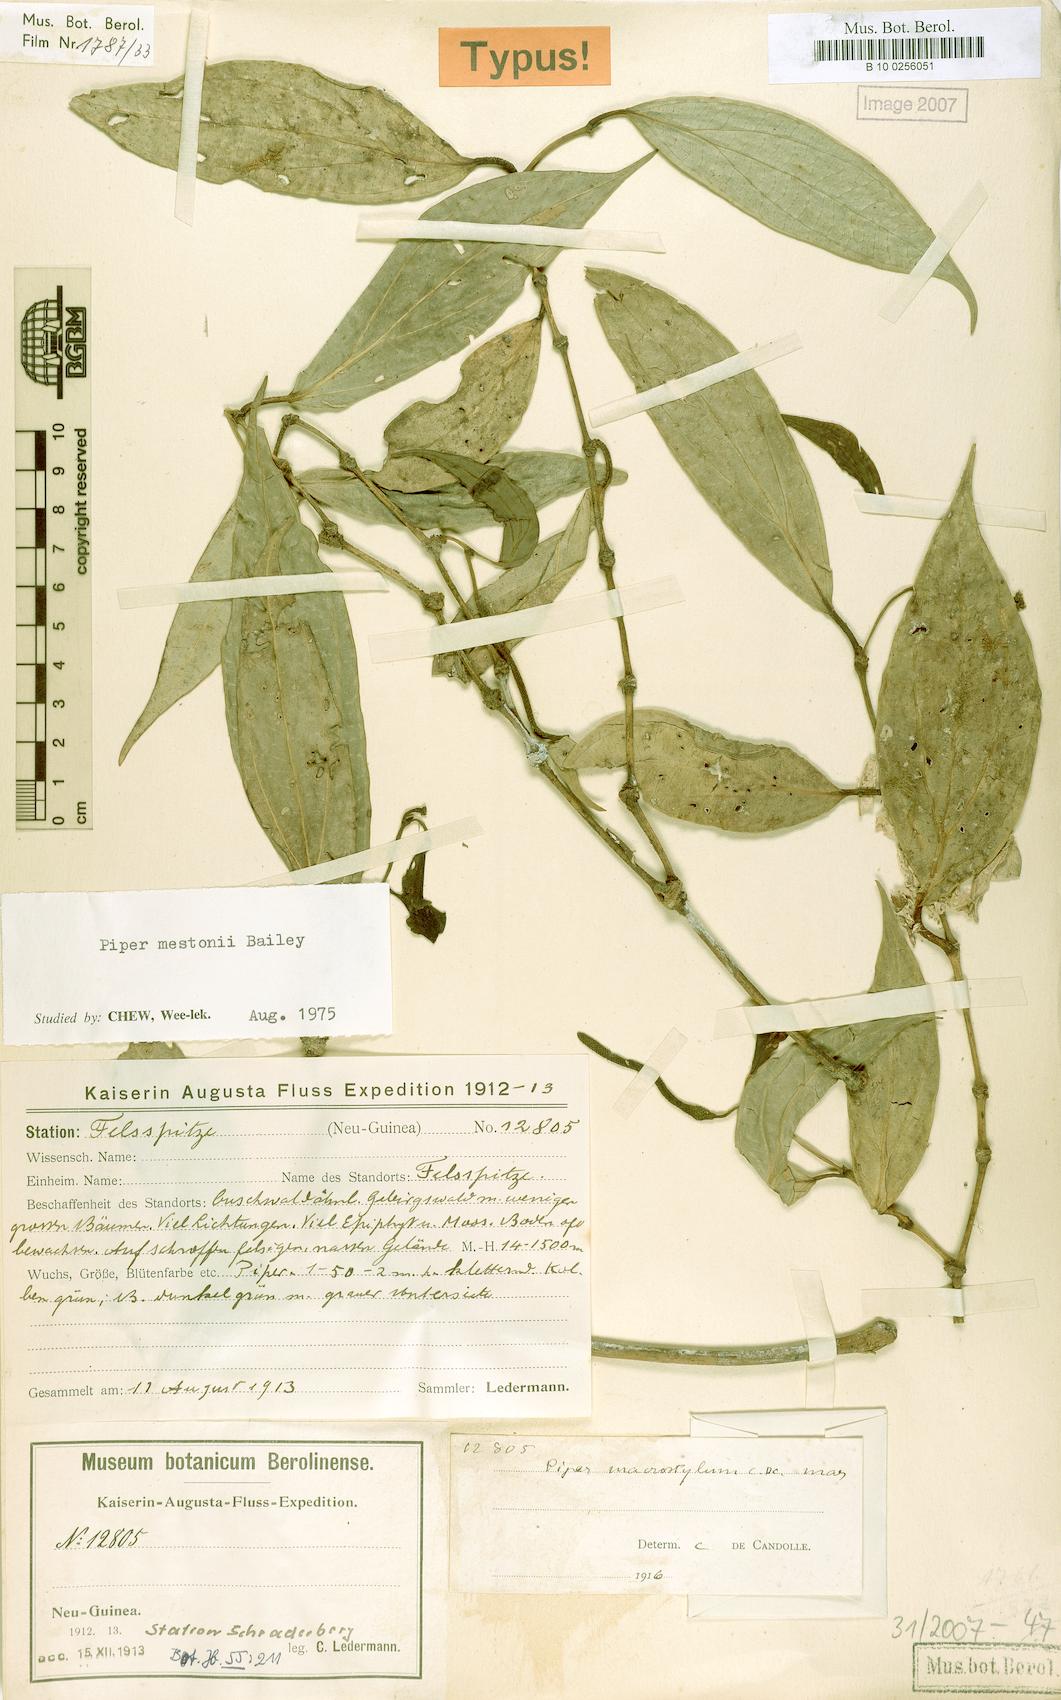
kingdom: Plantae
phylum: Tracheophyta
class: Magnoliopsida
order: Piperales
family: Piperaceae
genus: Piper
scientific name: Piper mestonii
